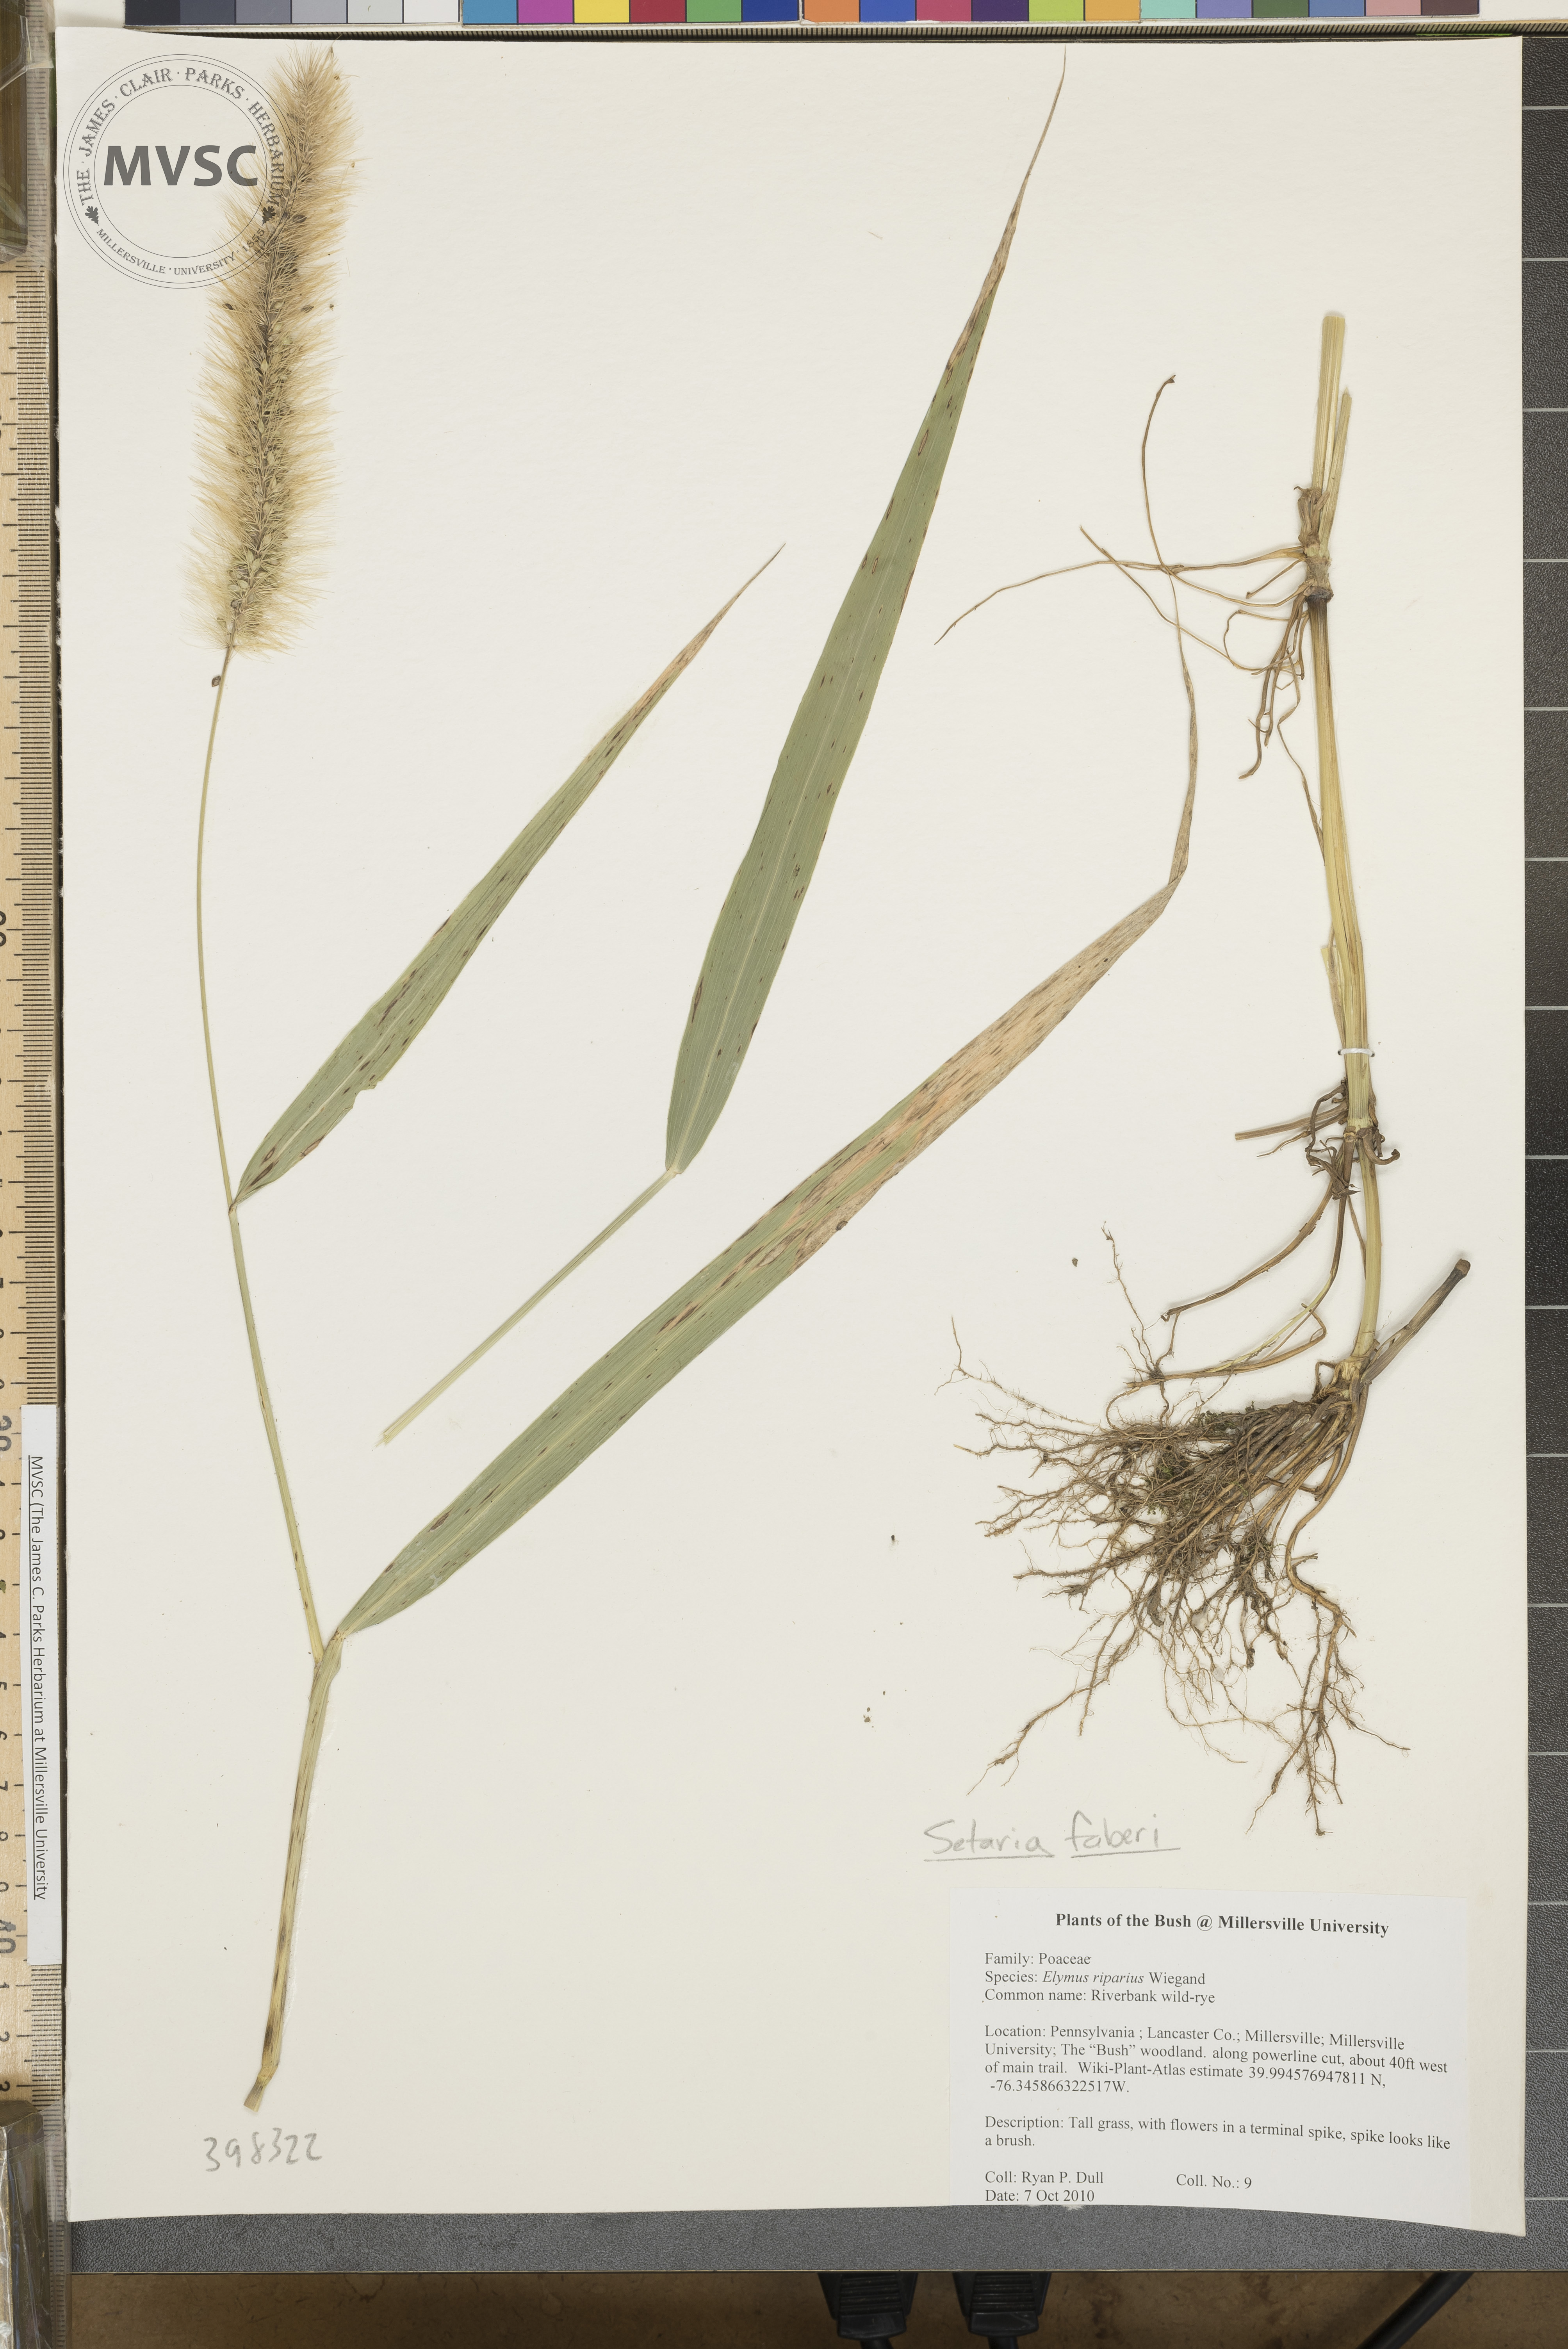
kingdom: Plantae
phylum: Tracheophyta
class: Liliopsida
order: Poales
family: Poaceae
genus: Setaria
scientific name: Setaria faberi
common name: Giant foxtail
